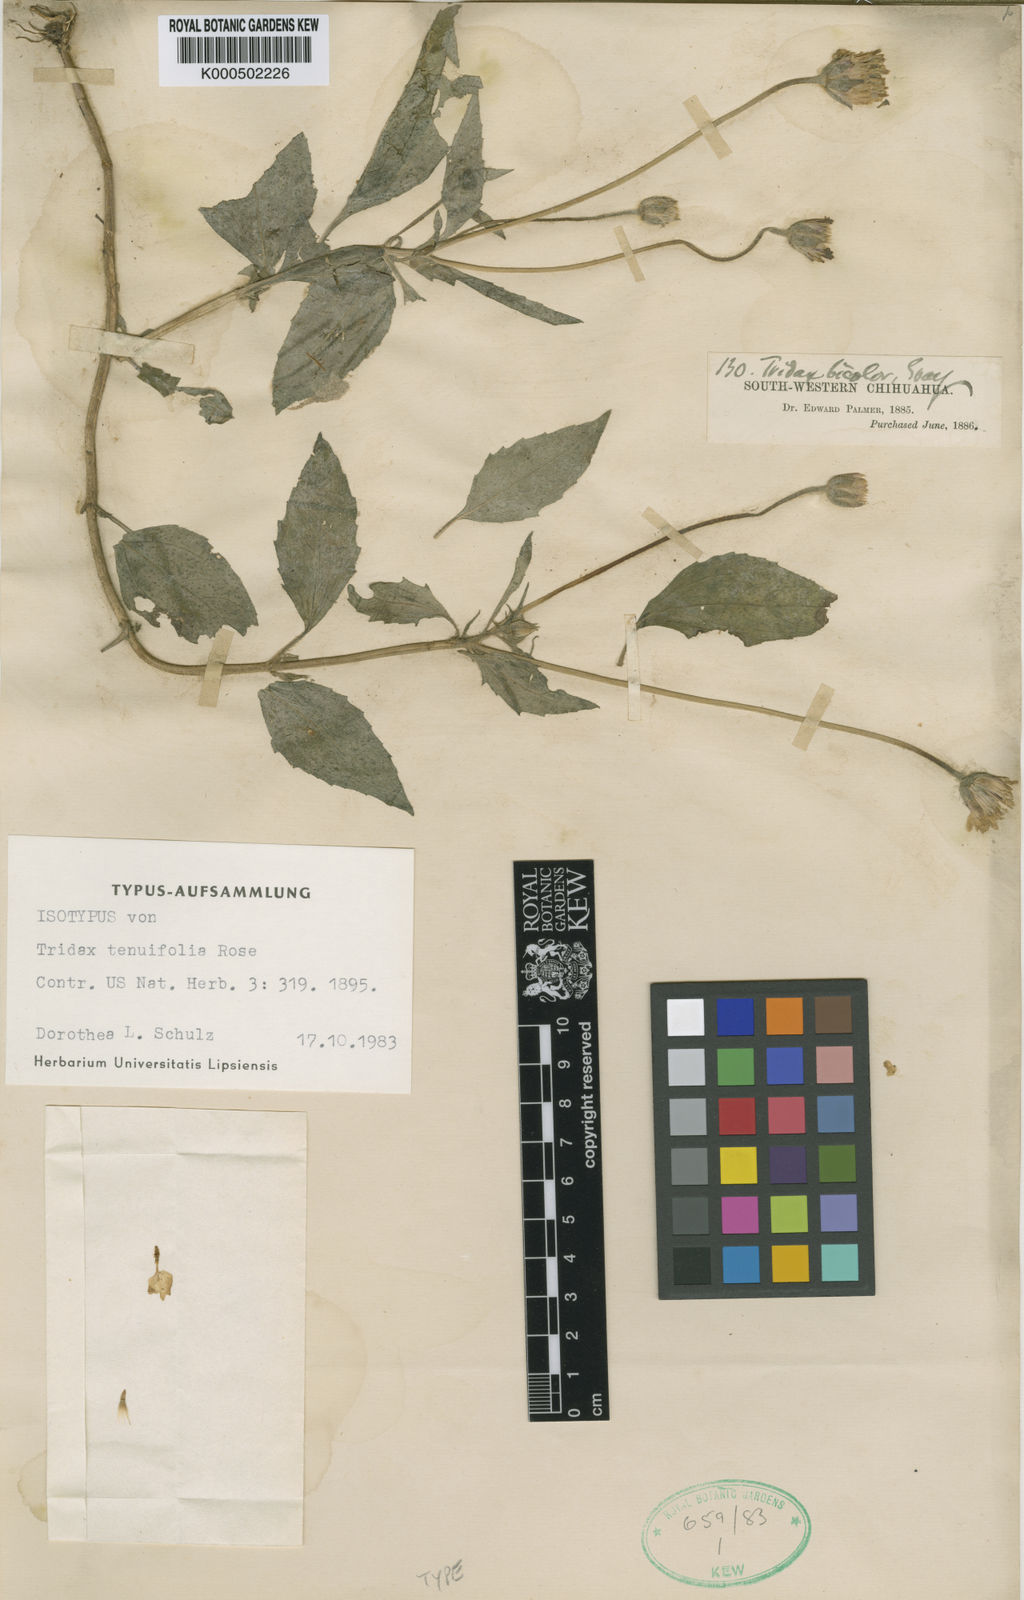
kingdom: Plantae
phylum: Tracheophyta
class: Magnoliopsida
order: Asterales
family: Asteraceae
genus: Tridax
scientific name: Tridax tenuifolia
